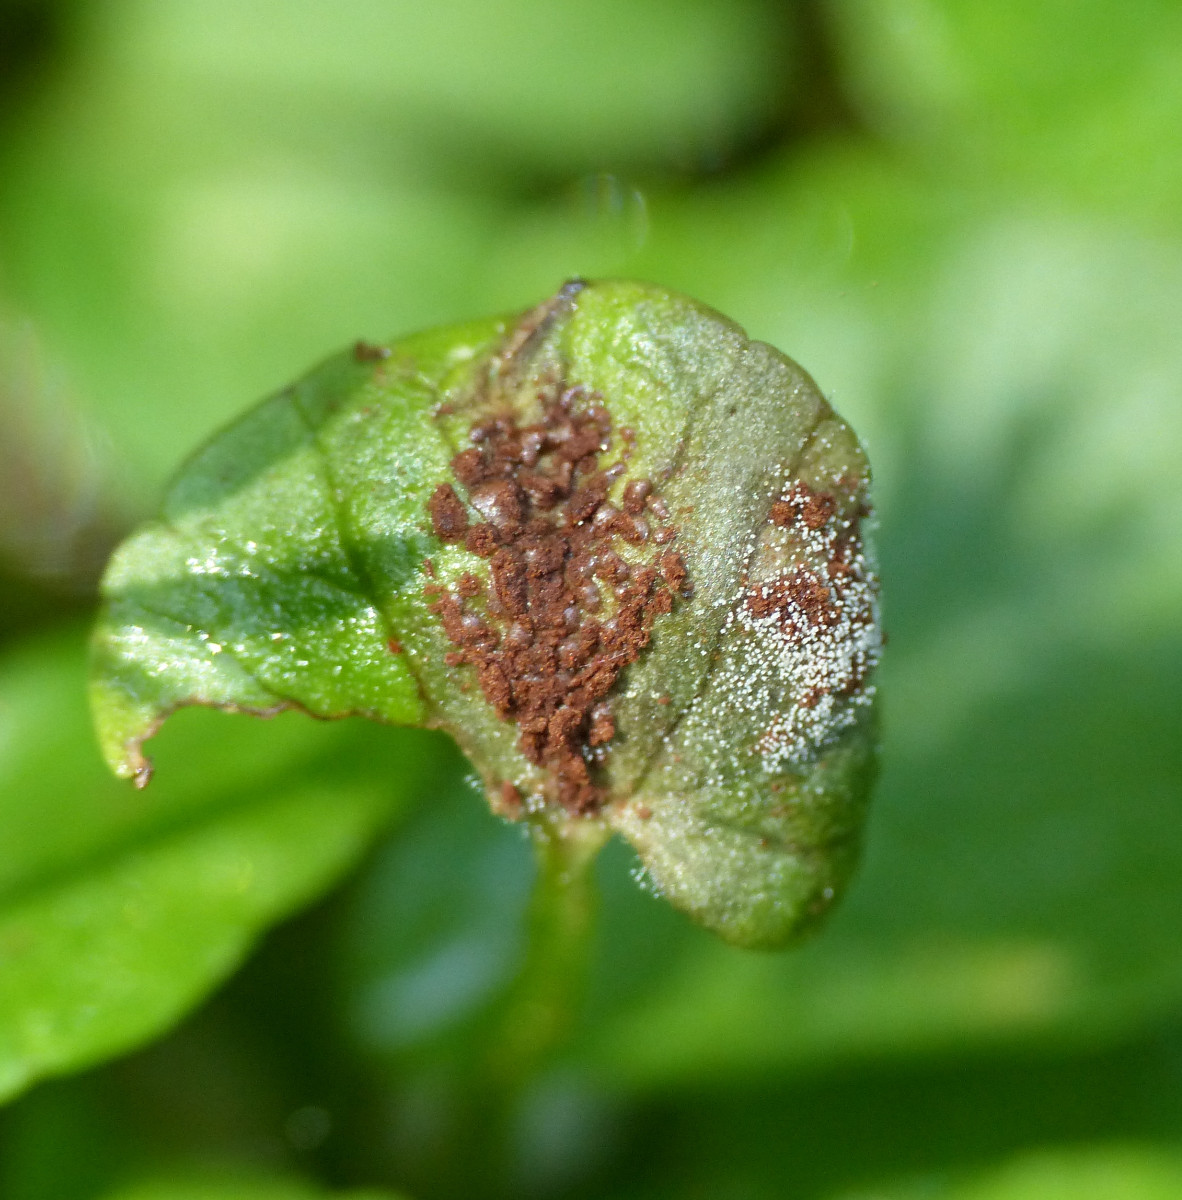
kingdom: Fungi
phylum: Basidiomycota
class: Pucciniomycetes
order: Pucciniales
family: Pucciniaceae
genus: Uromyces
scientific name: Uromyces ficariae
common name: vorterod-encellerust
